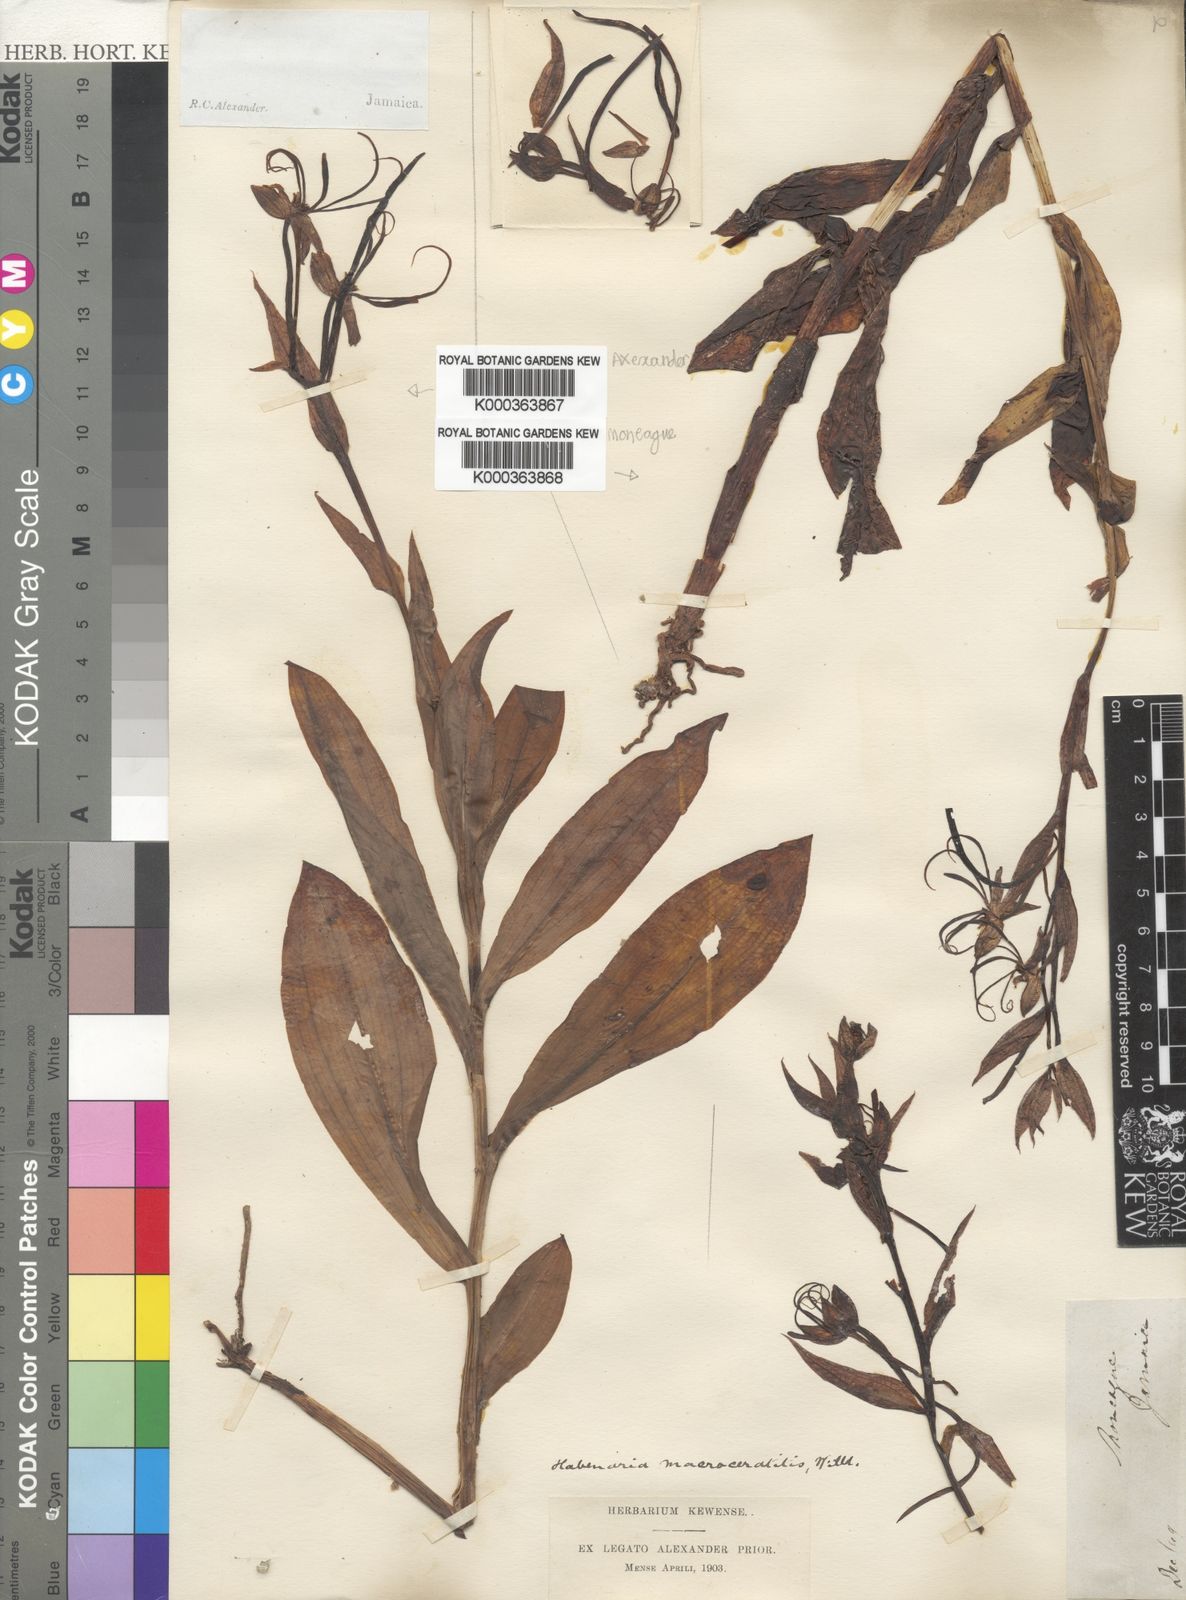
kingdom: Plantae
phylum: Tracheophyta
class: Liliopsida
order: Asparagales
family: Orchidaceae
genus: Habenaria
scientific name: Habenaria
